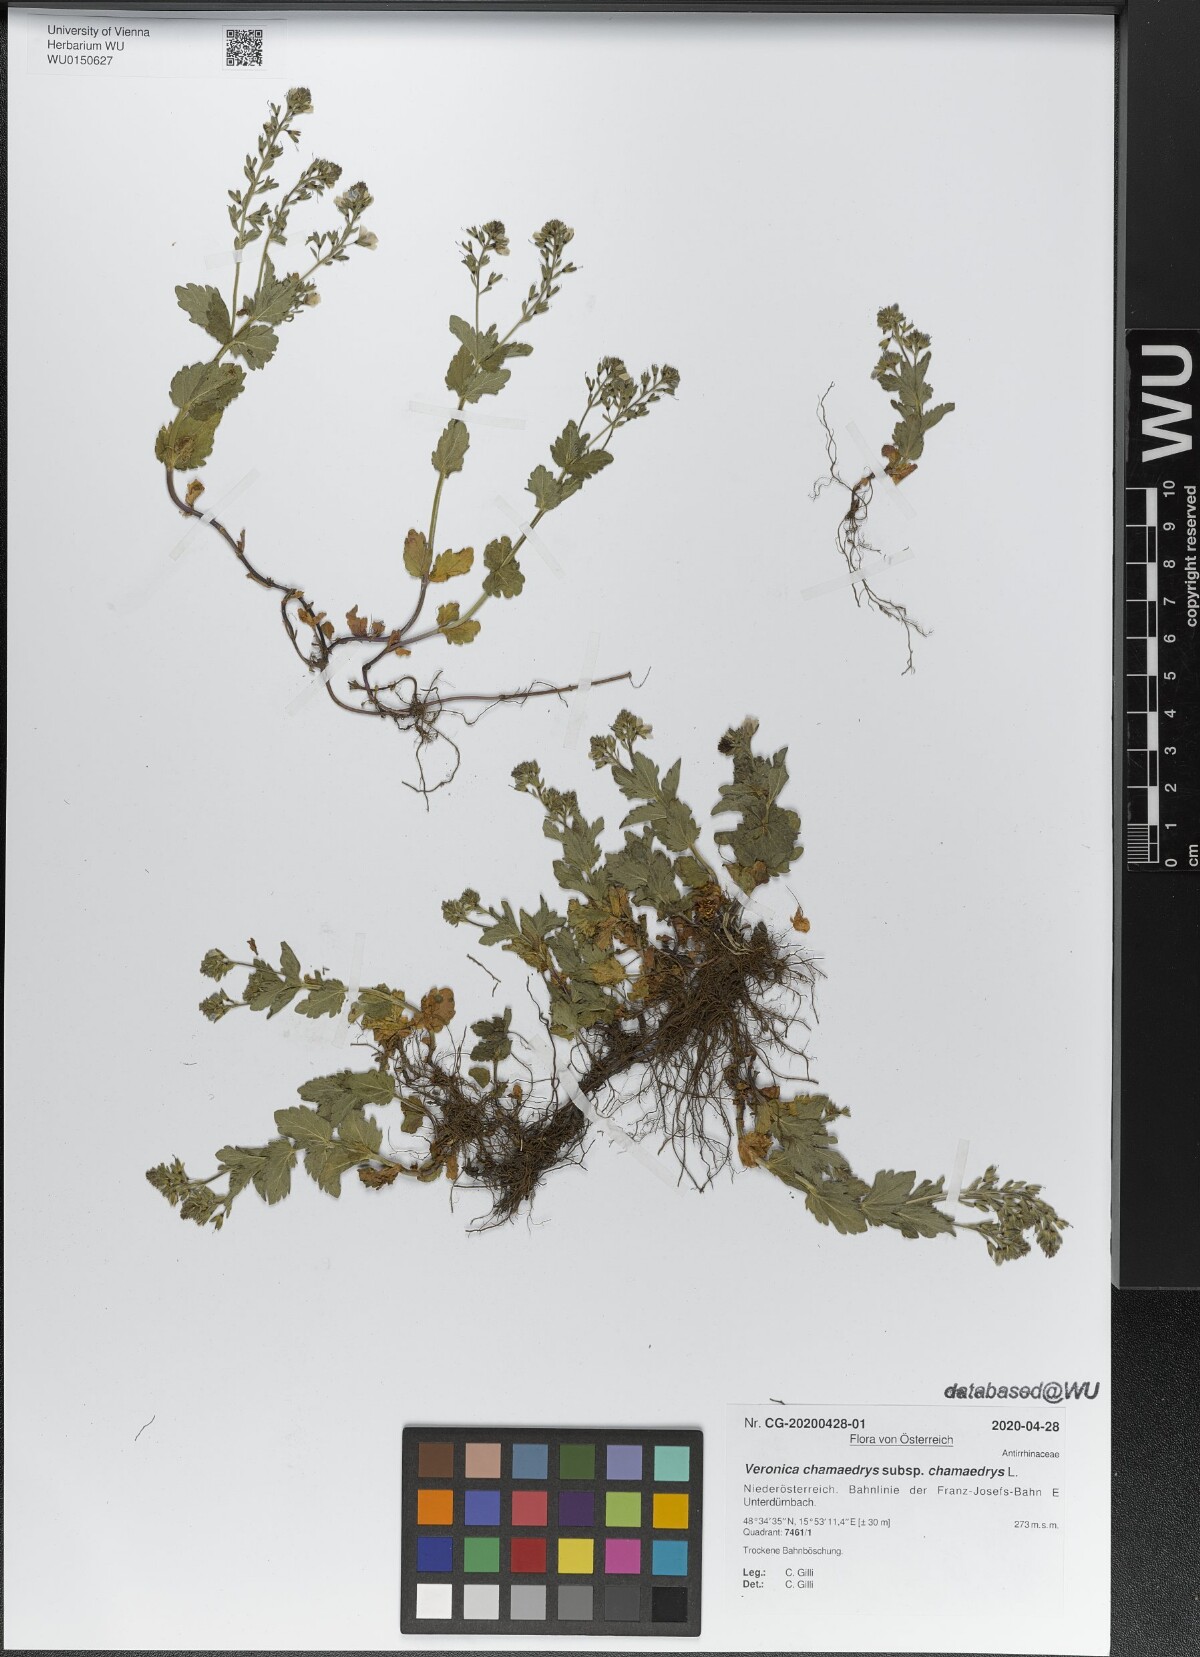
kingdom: Plantae
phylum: Tracheophyta
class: Magnoliopsida
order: Lamiales
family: Plantaginaceae
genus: Veronica
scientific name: Veronica chamaedrys
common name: Germander speedwell
